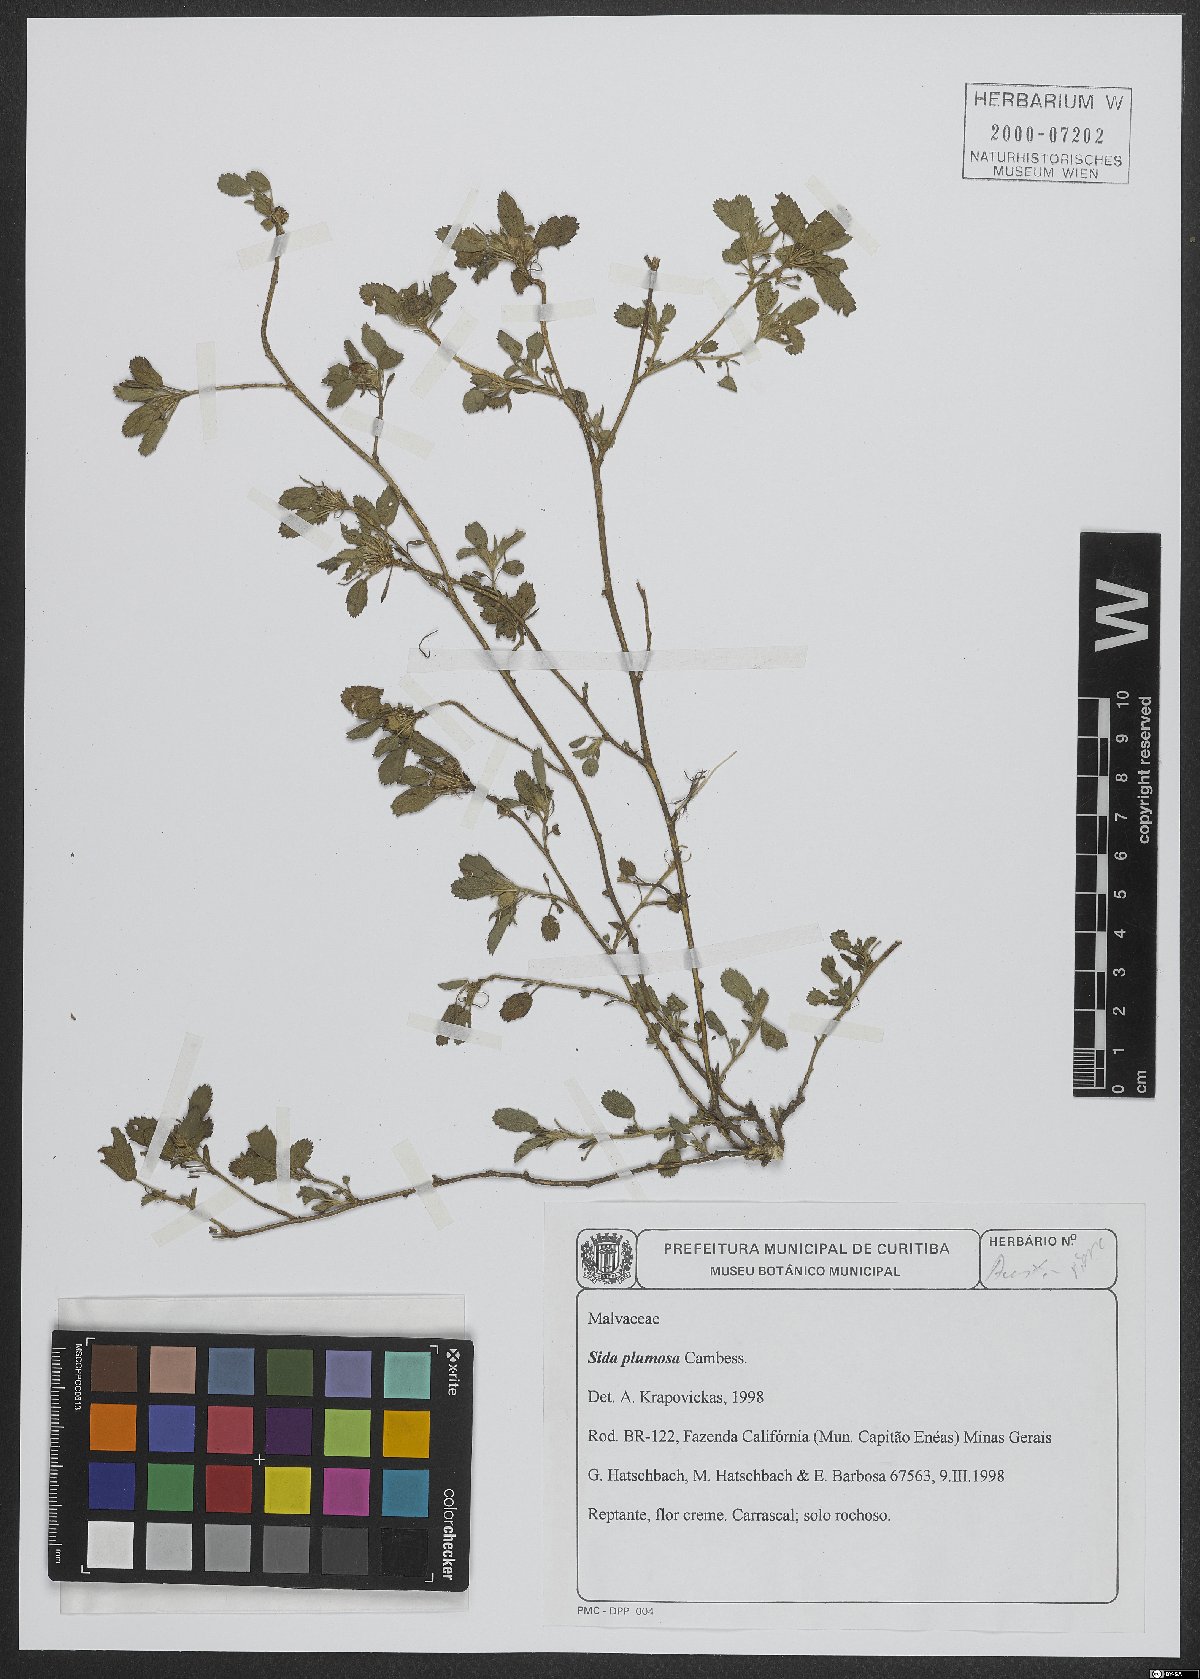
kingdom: Plantae
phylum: Tracheophyta
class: Magnoliopsida
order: Malvales
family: Malvaceae
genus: Sida
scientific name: Sida ciliaris
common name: Bracted fanpetals
